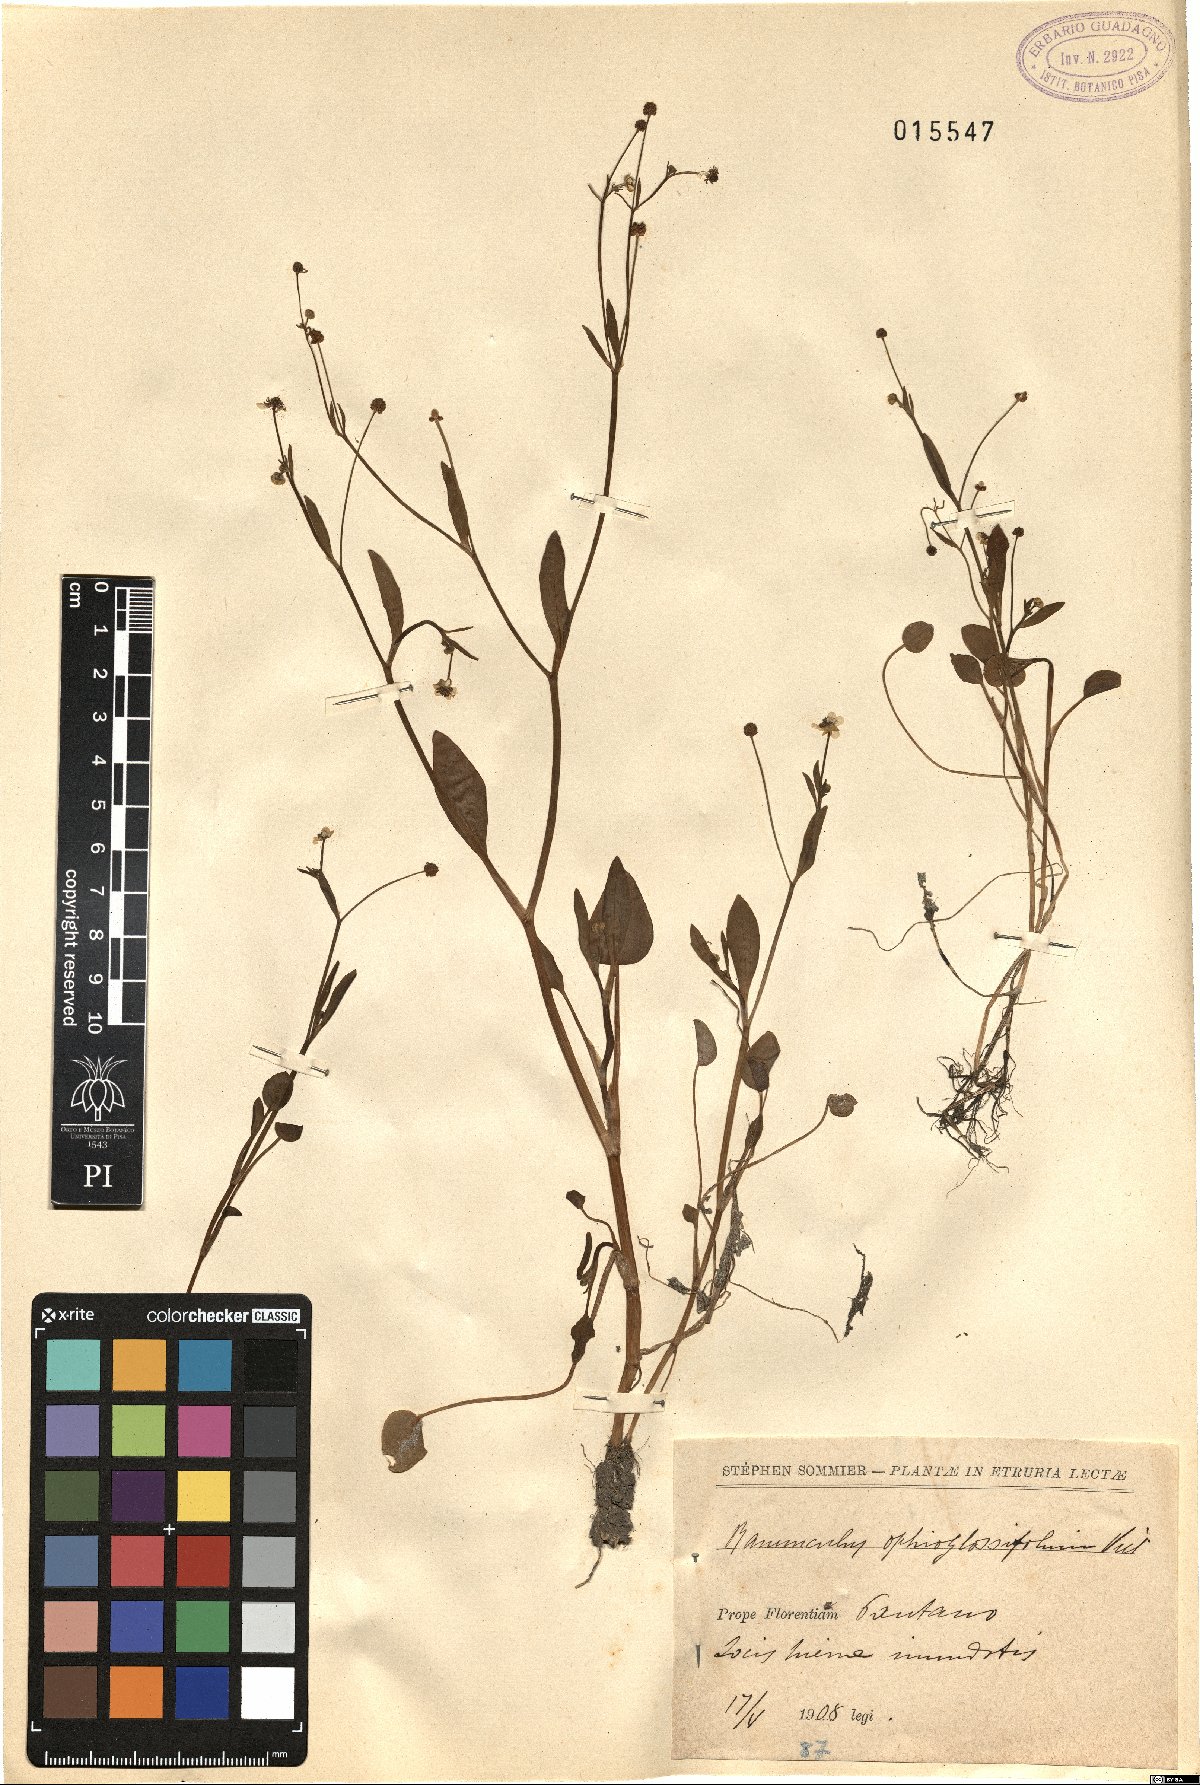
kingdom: Plantae
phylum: Tracheophyta
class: Magnoliopsida
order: Ranunculales
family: Ranunculaceae
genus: Ranunculus
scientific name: Ranunculus ophioglossifolius
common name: Adder's-tongue spearwort
